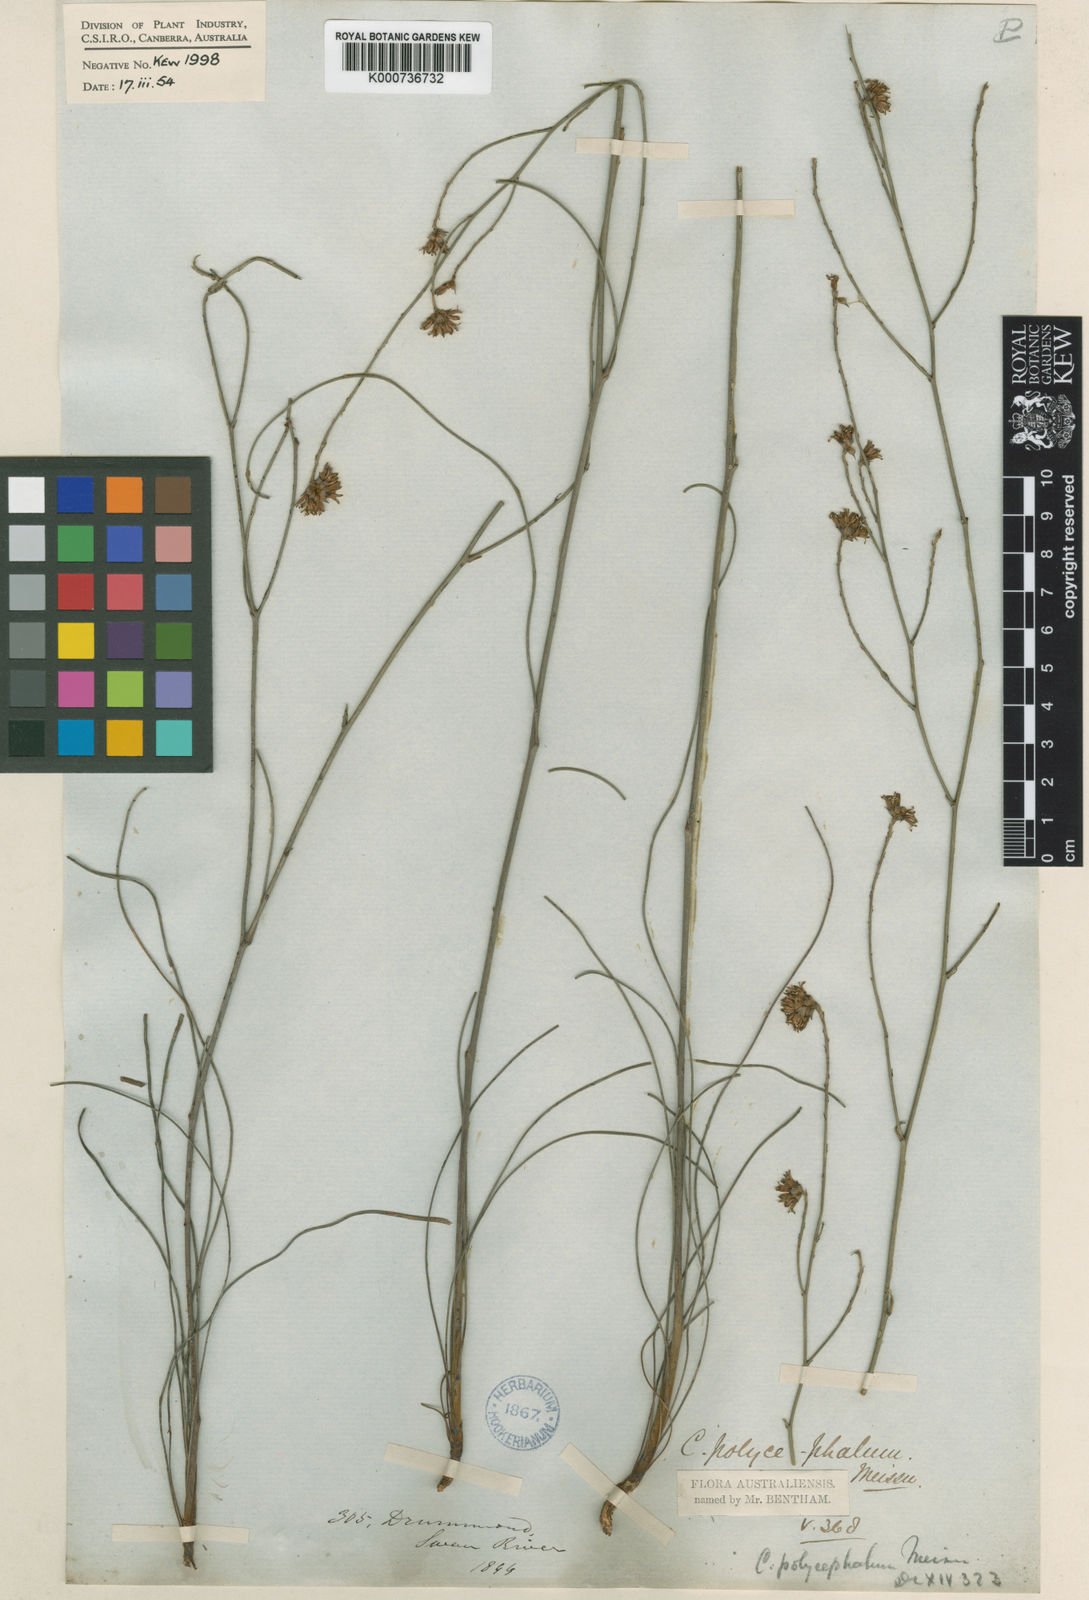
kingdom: Plantae
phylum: Tracheophyta
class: Magnoliopsida
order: Proteales
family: Proteaceae
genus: Conospermum
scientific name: Conospermum polycephalum
